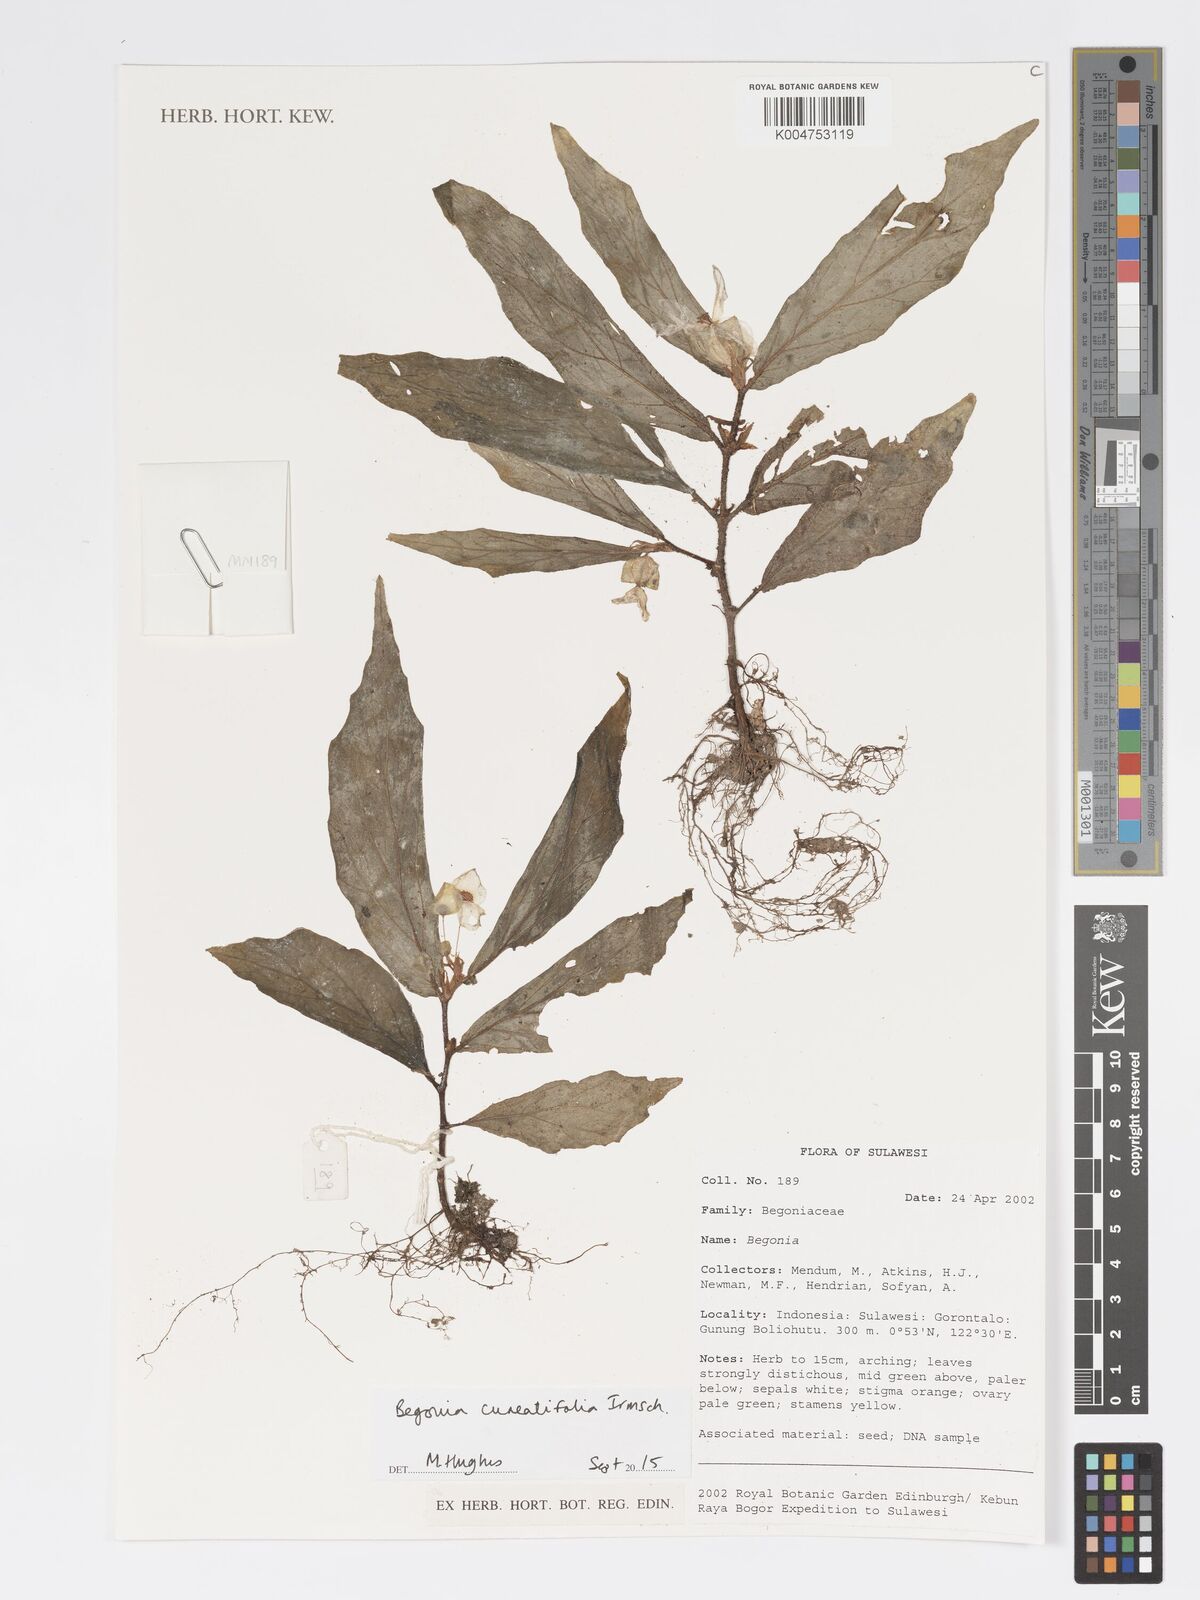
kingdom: Plantae
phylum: Tracheophyta
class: Magnoliopsida
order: Cucurbitales
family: Begoniaceae
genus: Begonia
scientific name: Begonia cuneatifolia
